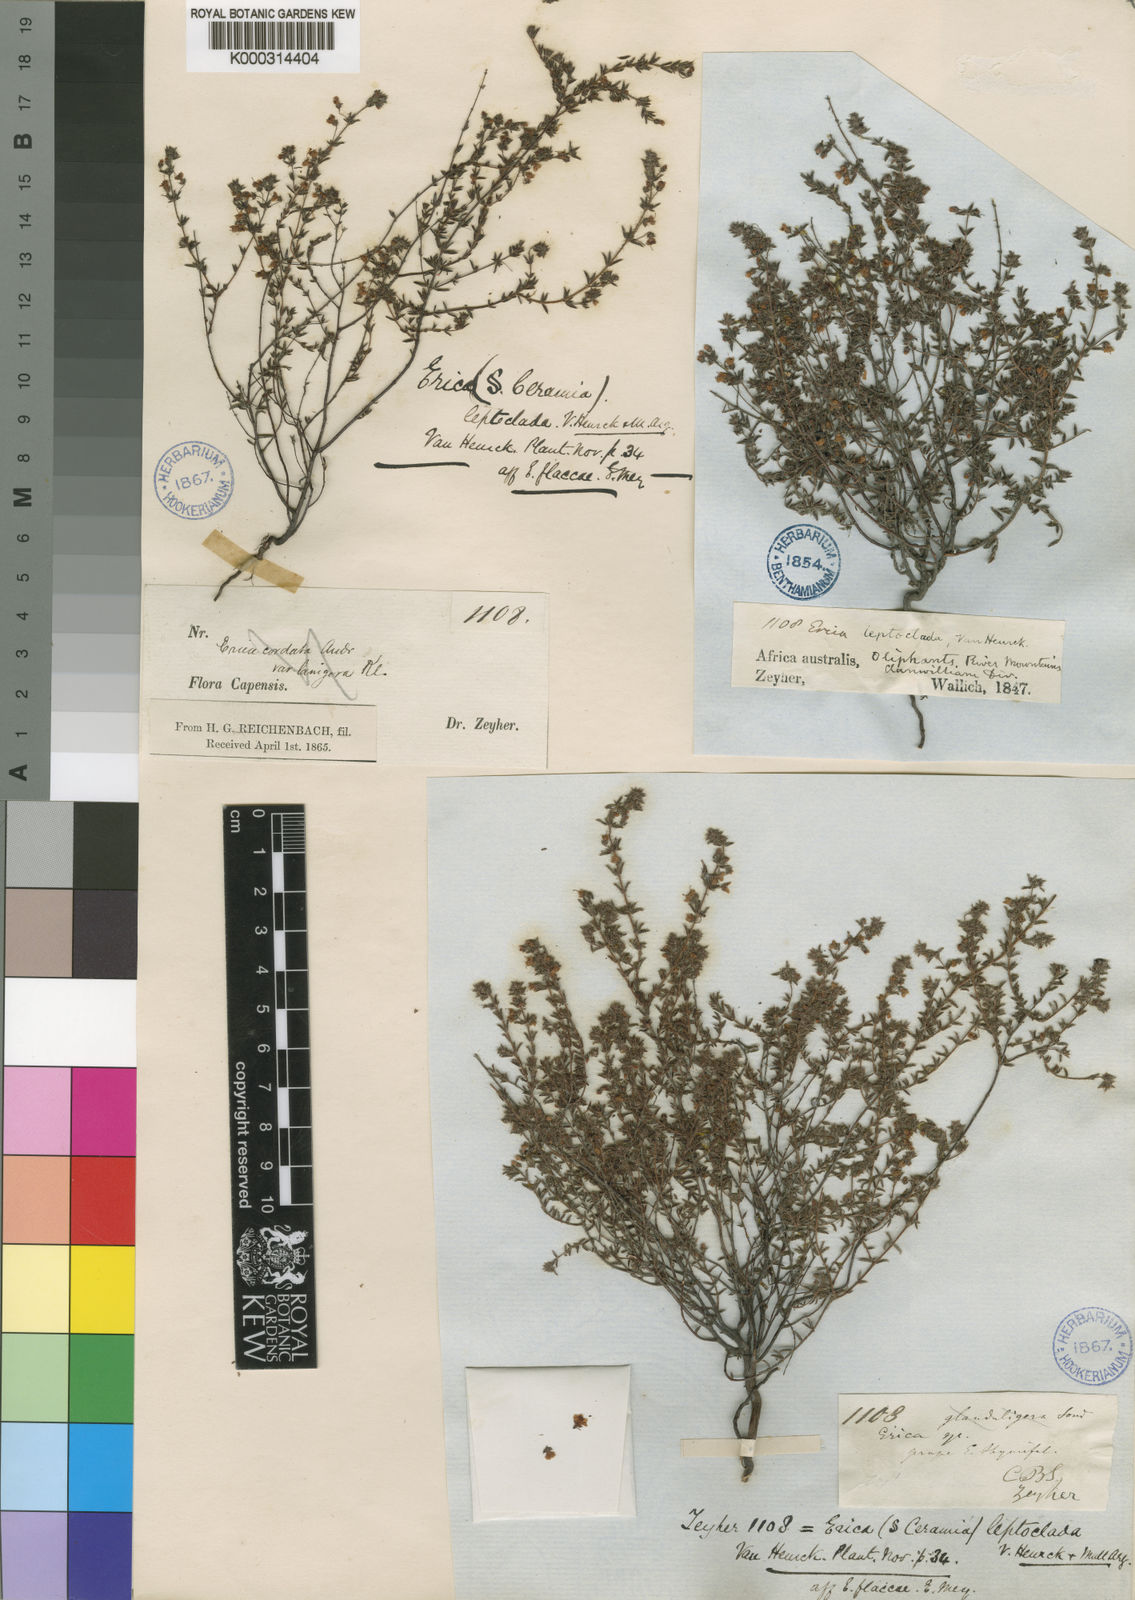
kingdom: Plantae
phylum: Tracheophyta
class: Magnoliopsida
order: Ericales
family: Ericaceae
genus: Erica
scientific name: Erica
